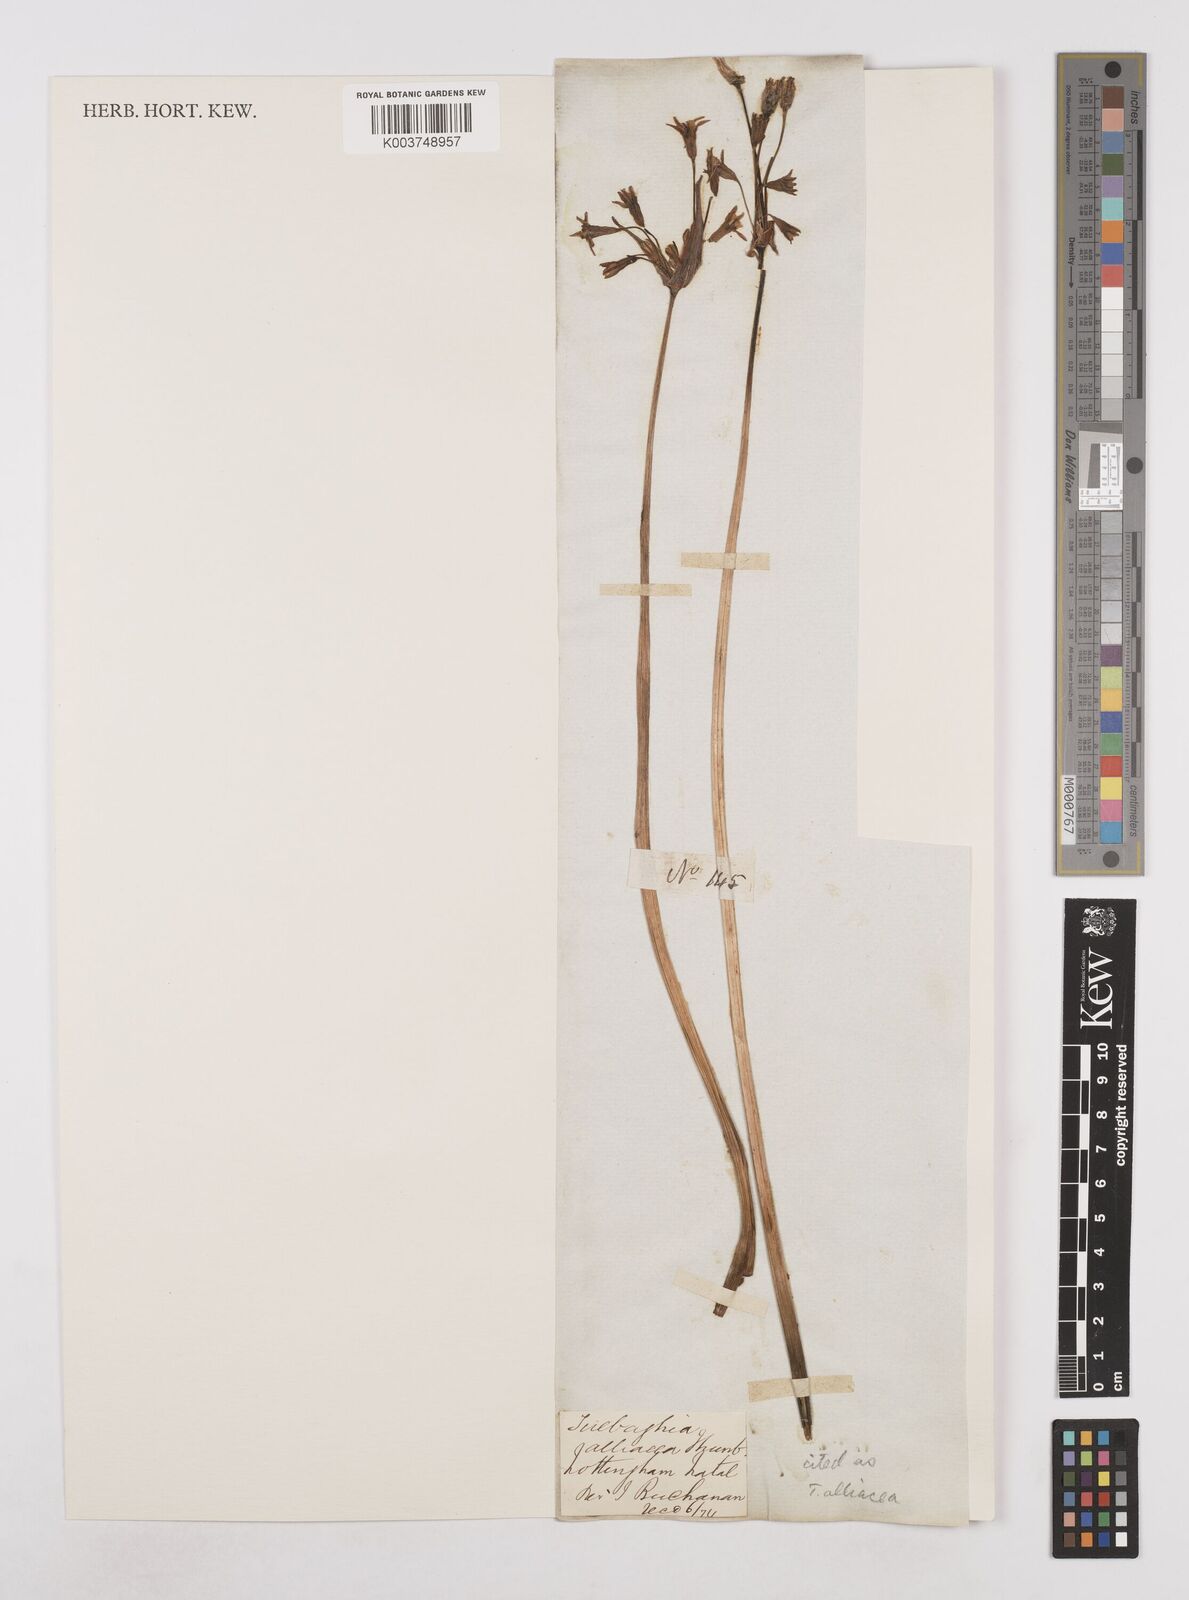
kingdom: Plantae
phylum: Tracheophyta
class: Liliopsida
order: Asparagales
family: Amaryllidaceae
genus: Tulbaghia
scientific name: Tulbaghia alliacea
